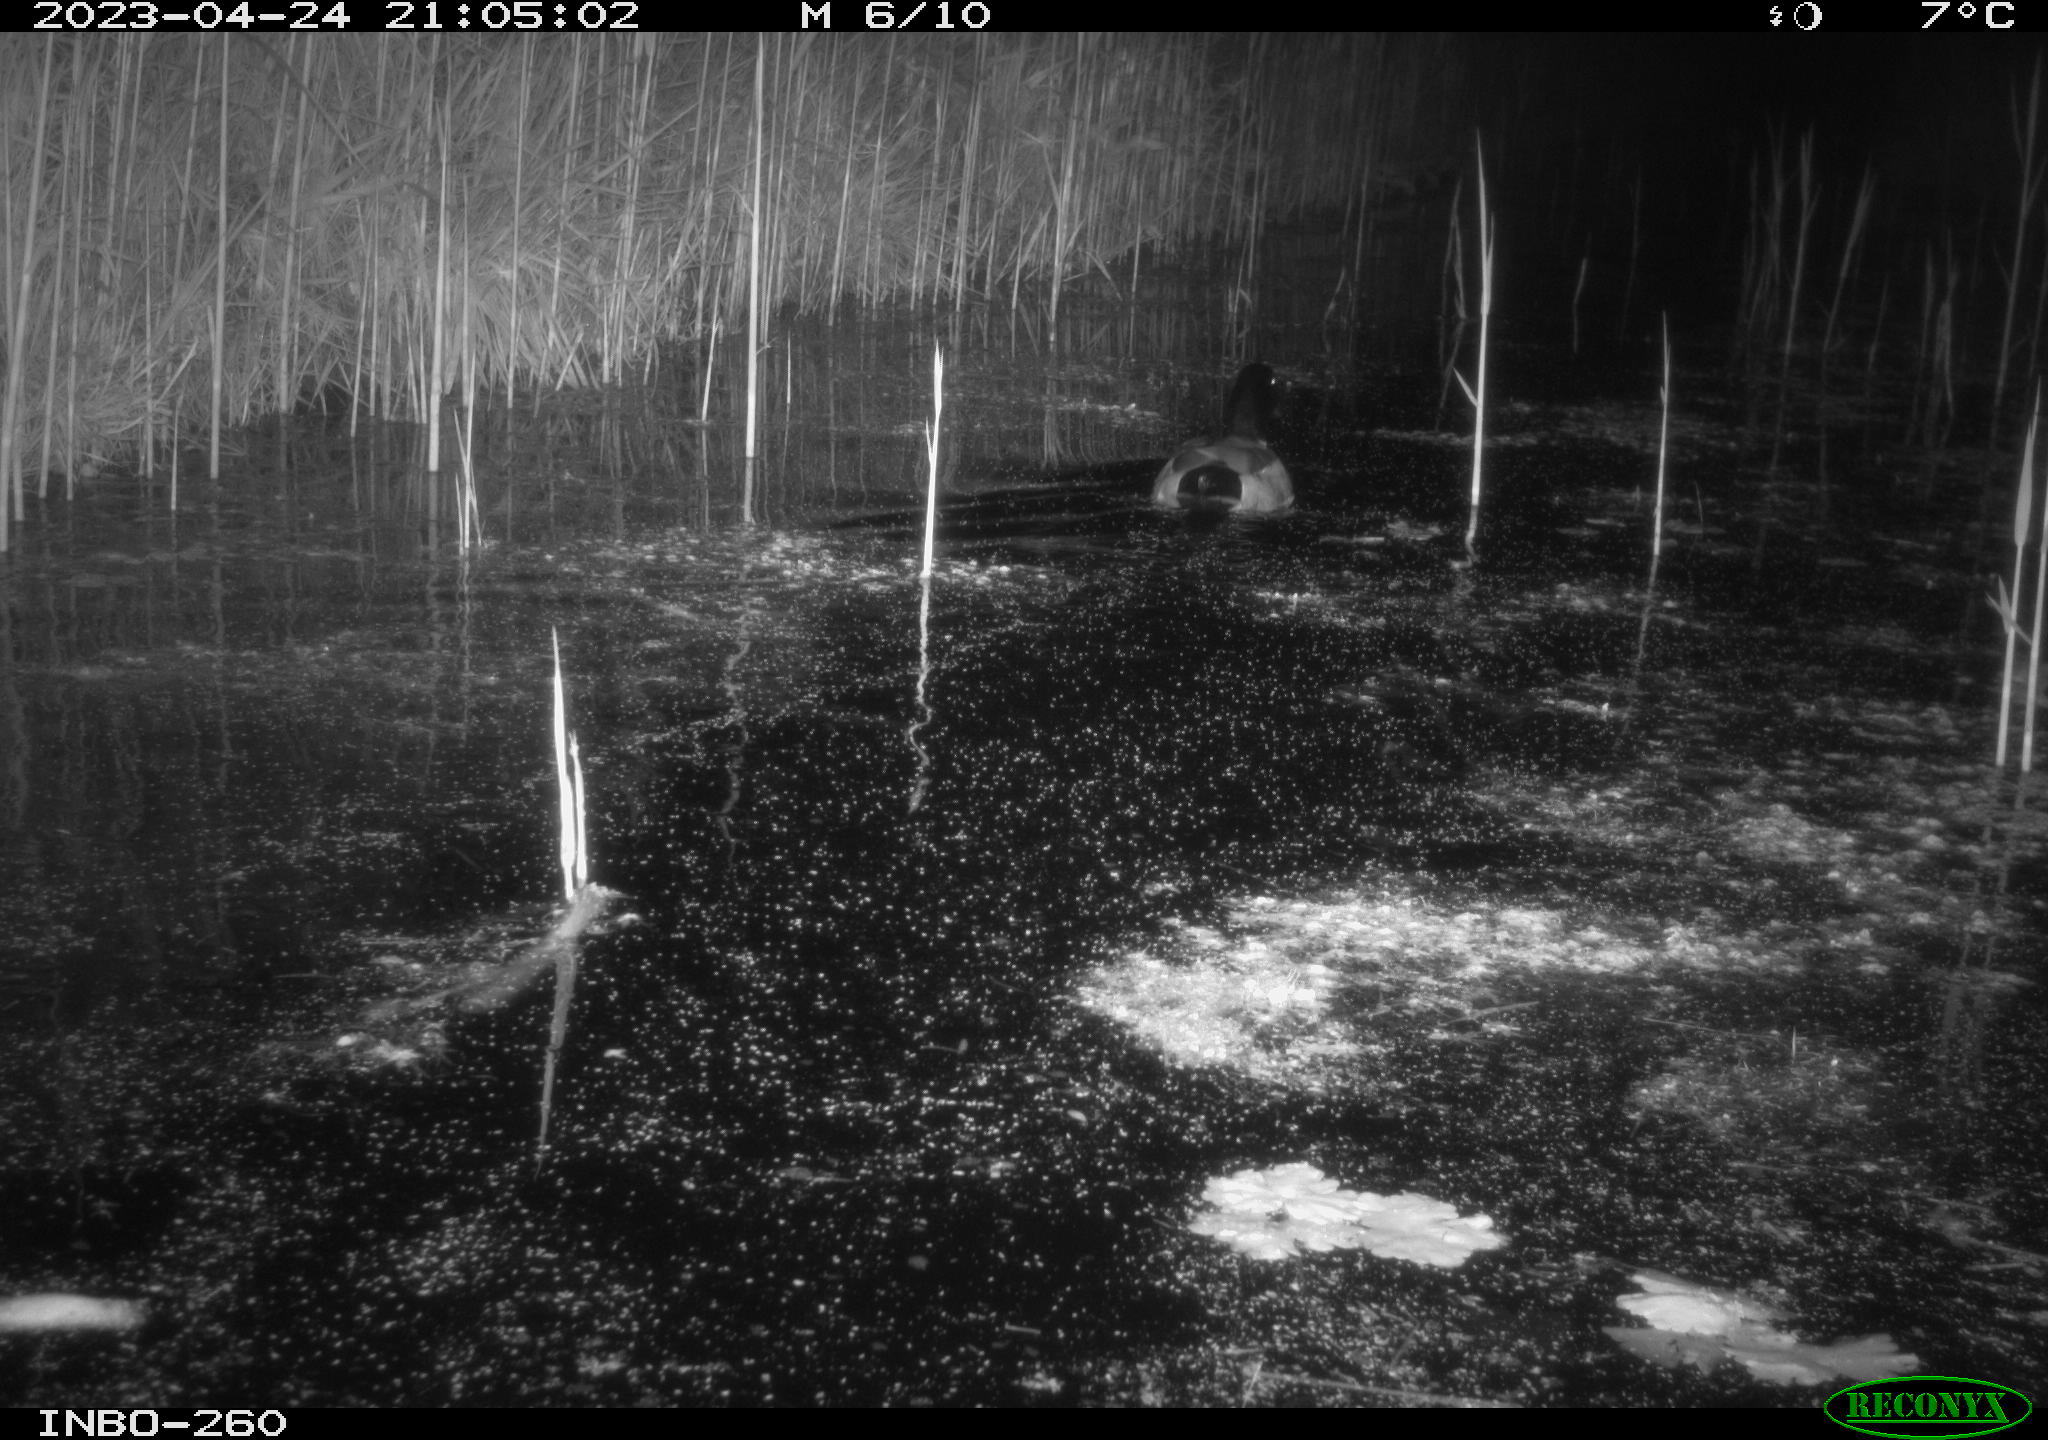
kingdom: Animalia
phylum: Chordata
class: Aves
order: Anseriformes
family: Anatidae
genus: Anas
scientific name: Anas
